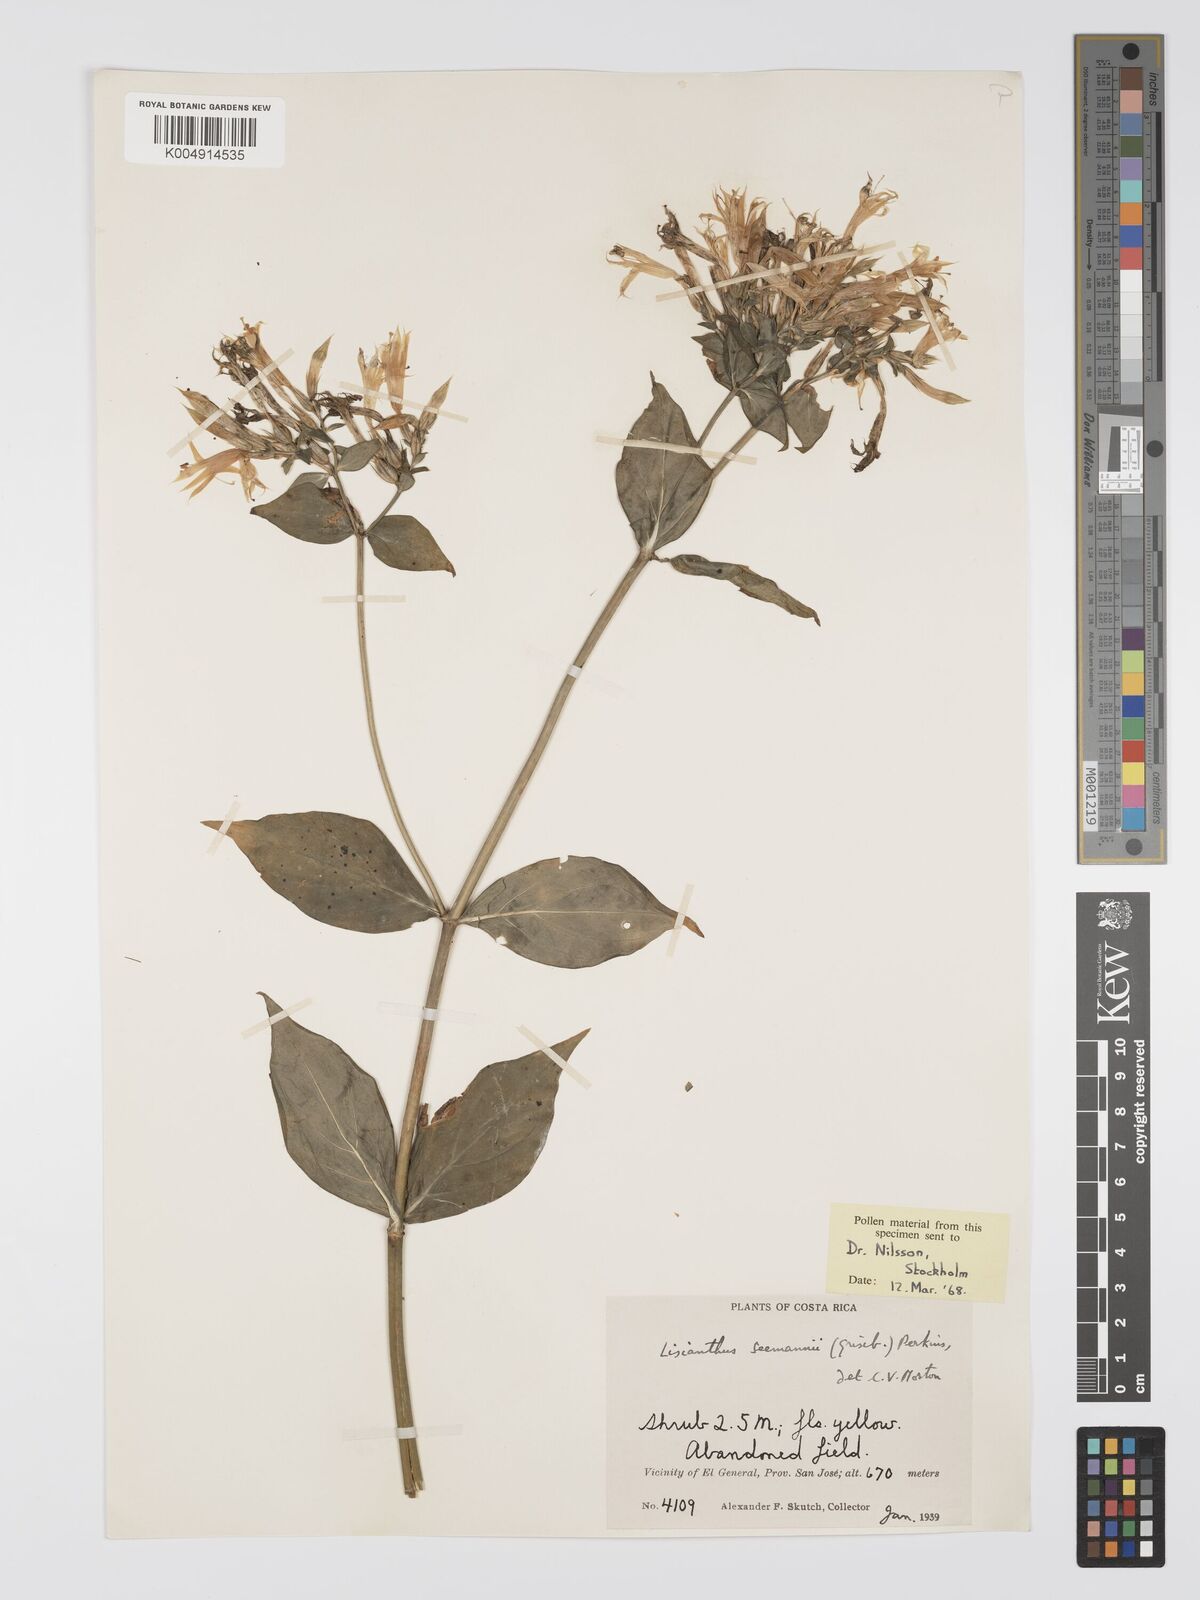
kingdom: Plantae
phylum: Tracheophyta
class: Magnoliopsida
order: Gentianales
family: Gentianaceae
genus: Lisianthus
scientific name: Lisianthus seemannii
